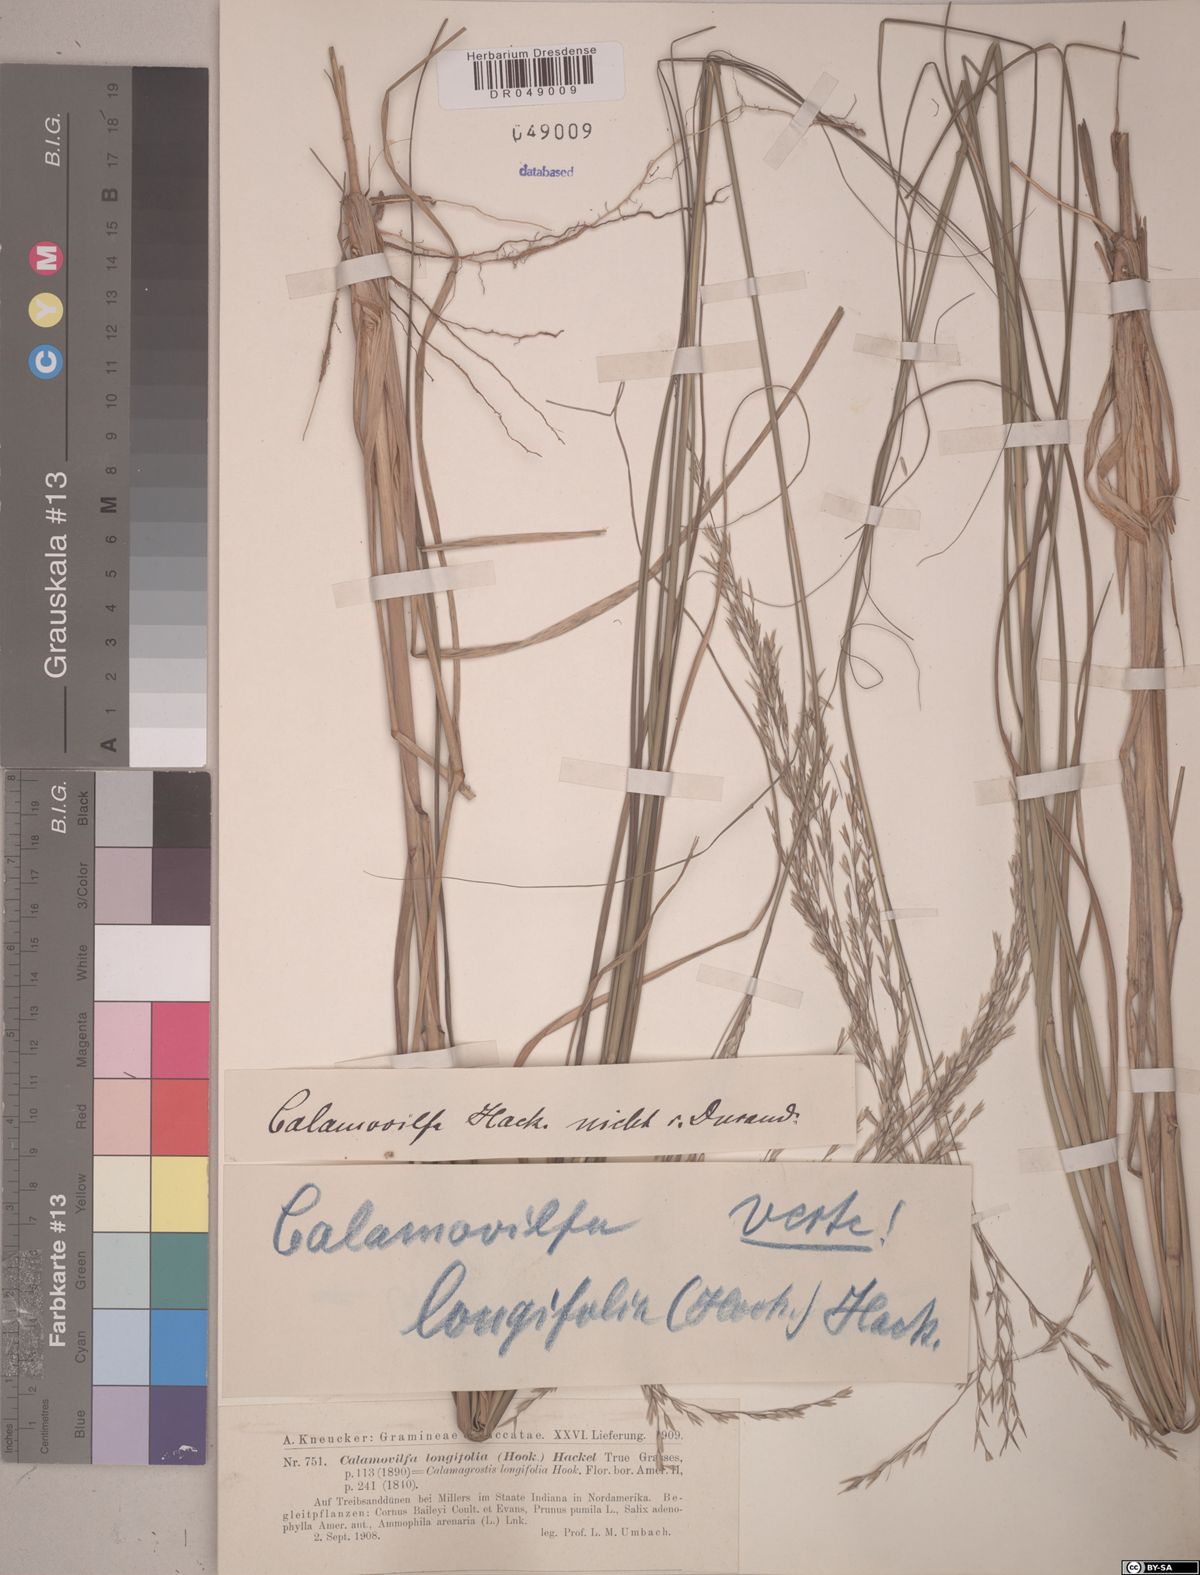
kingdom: Plantae
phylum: Tracheophyta
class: Liliopsida
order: Poales
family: Poaceae
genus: Calamovilfa
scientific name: Calamovilfa longifolia
